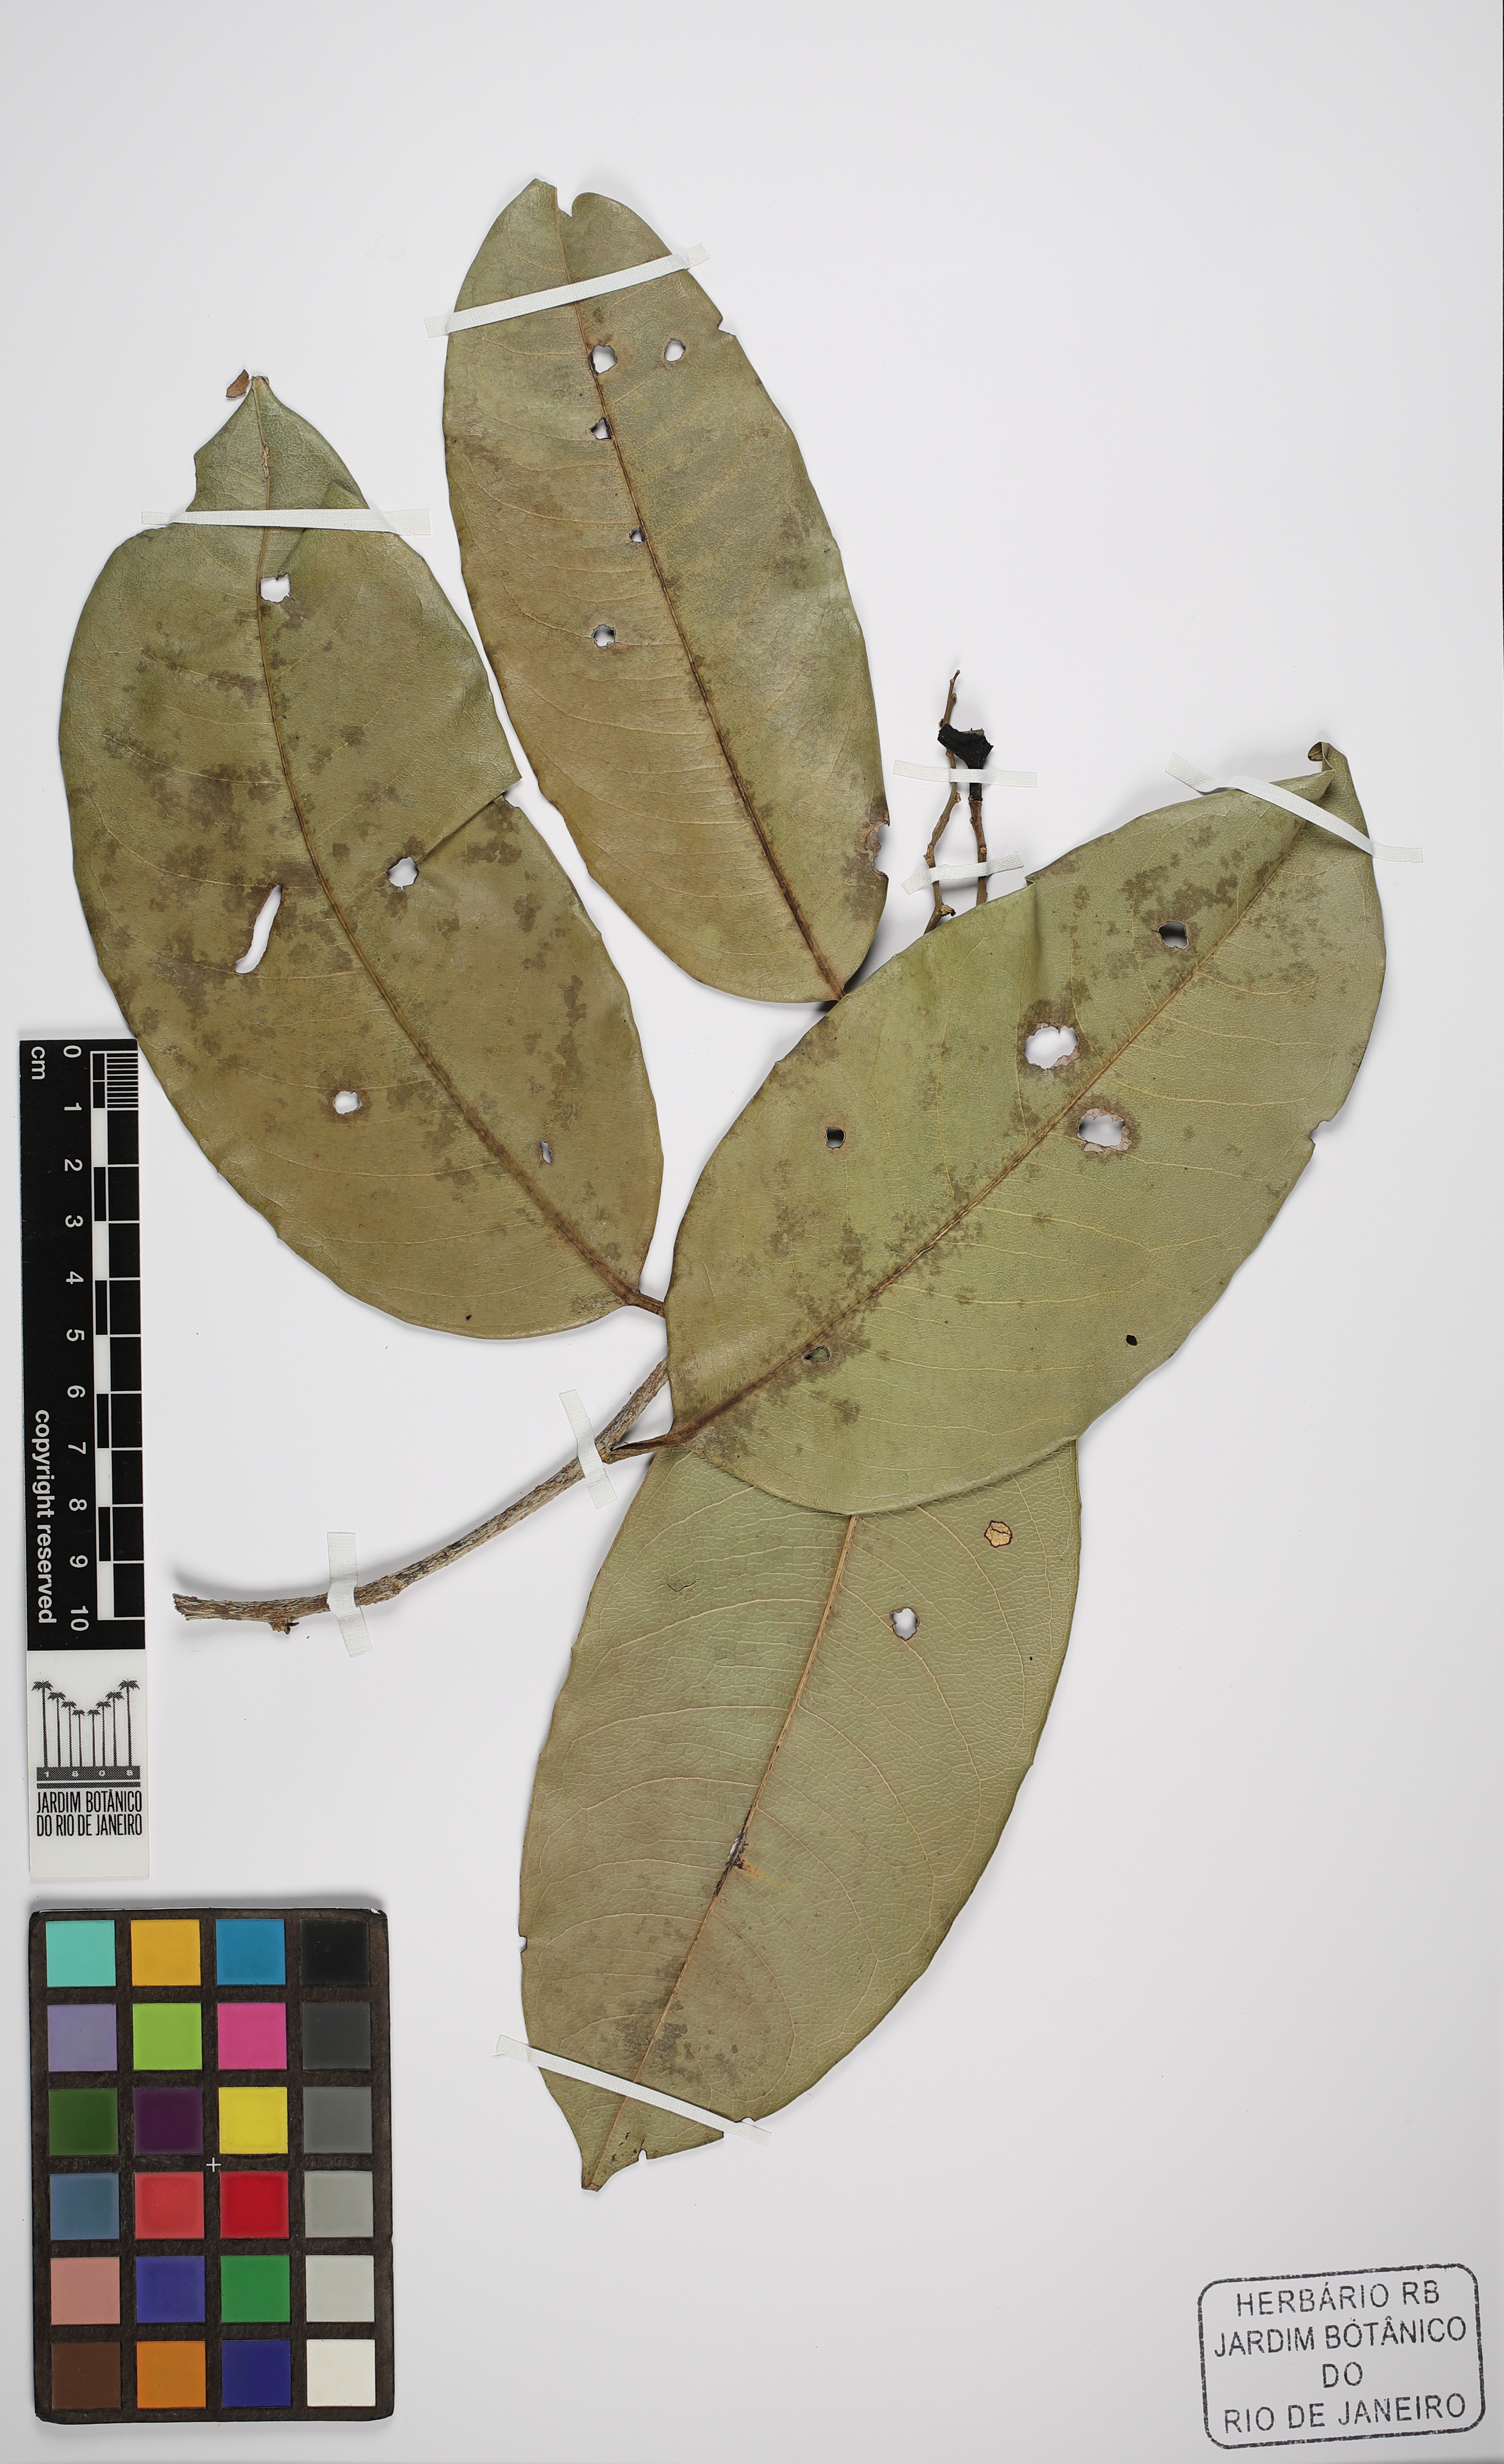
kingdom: Plantae
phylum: Tracheophyta
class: Magnoliopsida
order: Ericales
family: Lecythidaceae
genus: Eschweilera
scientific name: Eschweilera ovata
